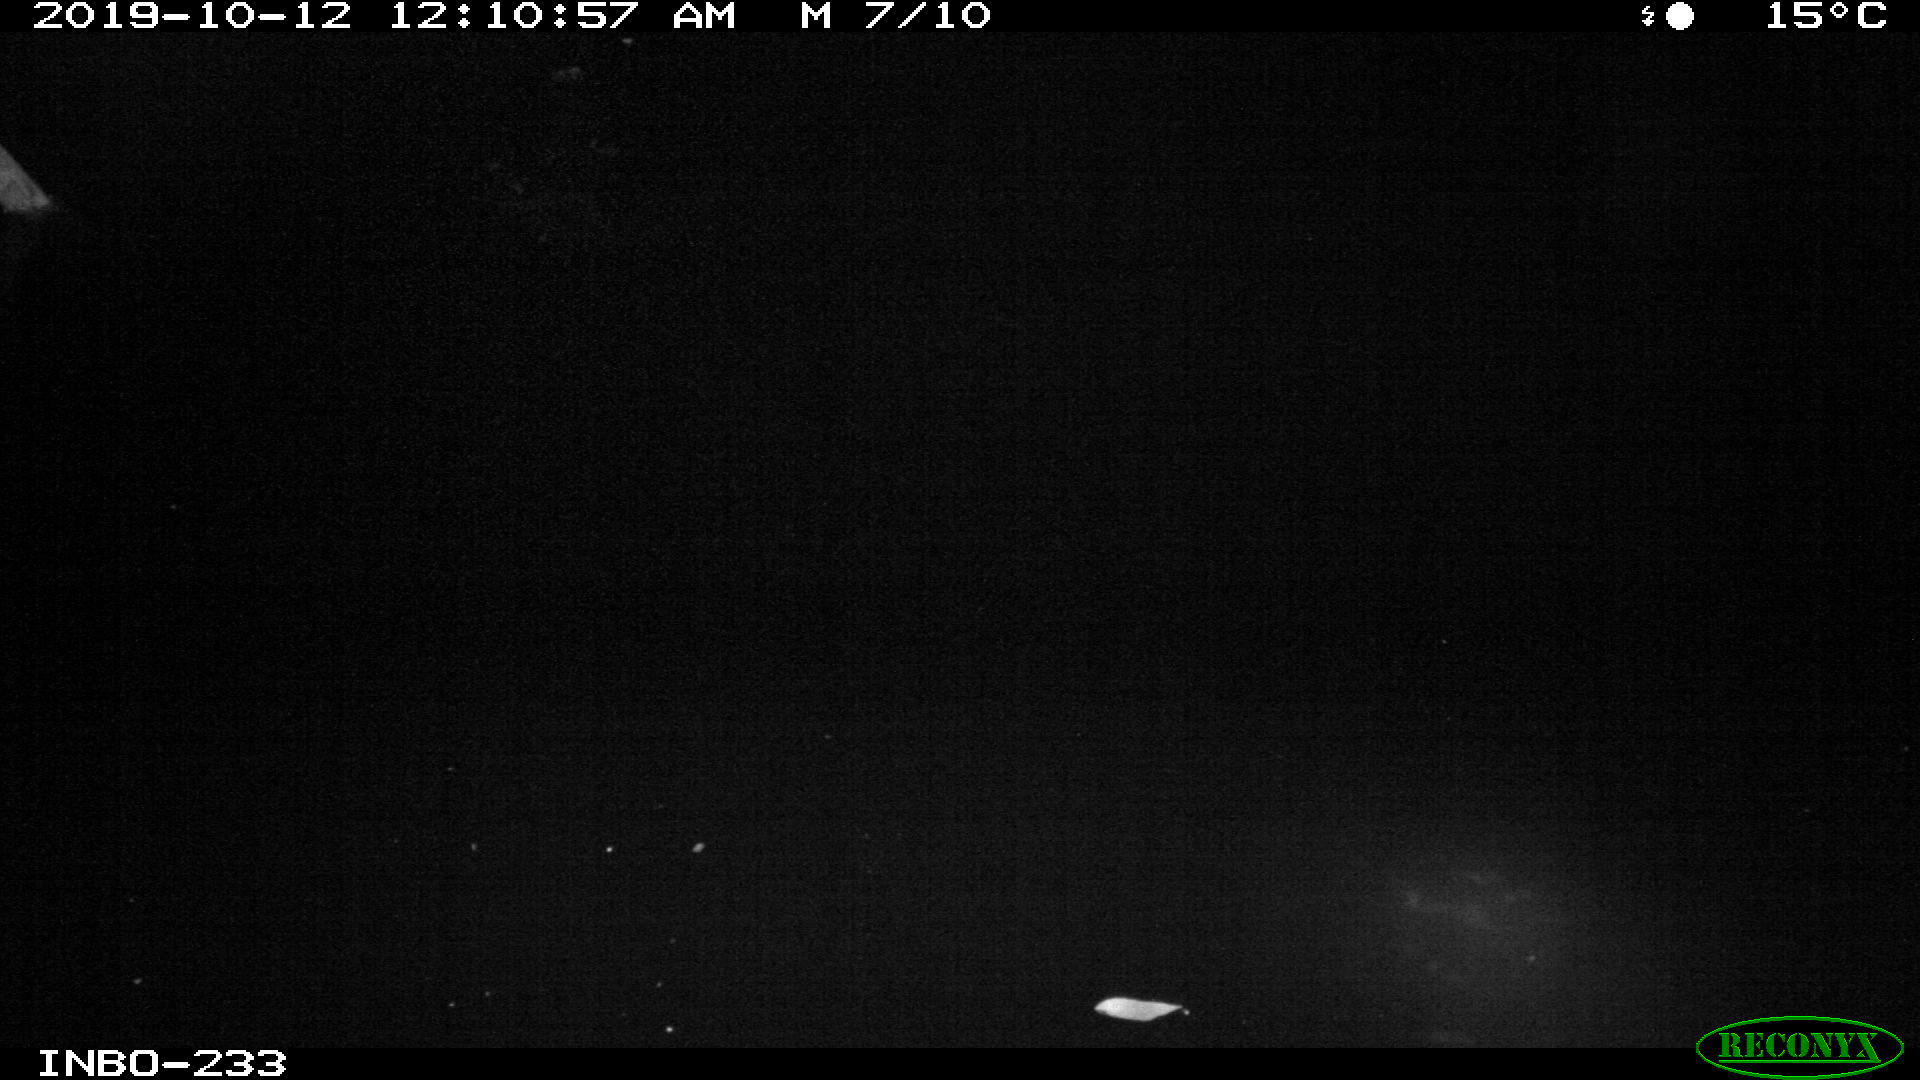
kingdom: Animalia
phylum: Chordata
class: Aves
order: Anseriformes
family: Anatidae
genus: Anas
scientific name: Anas platyrhynchos
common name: Mallard
